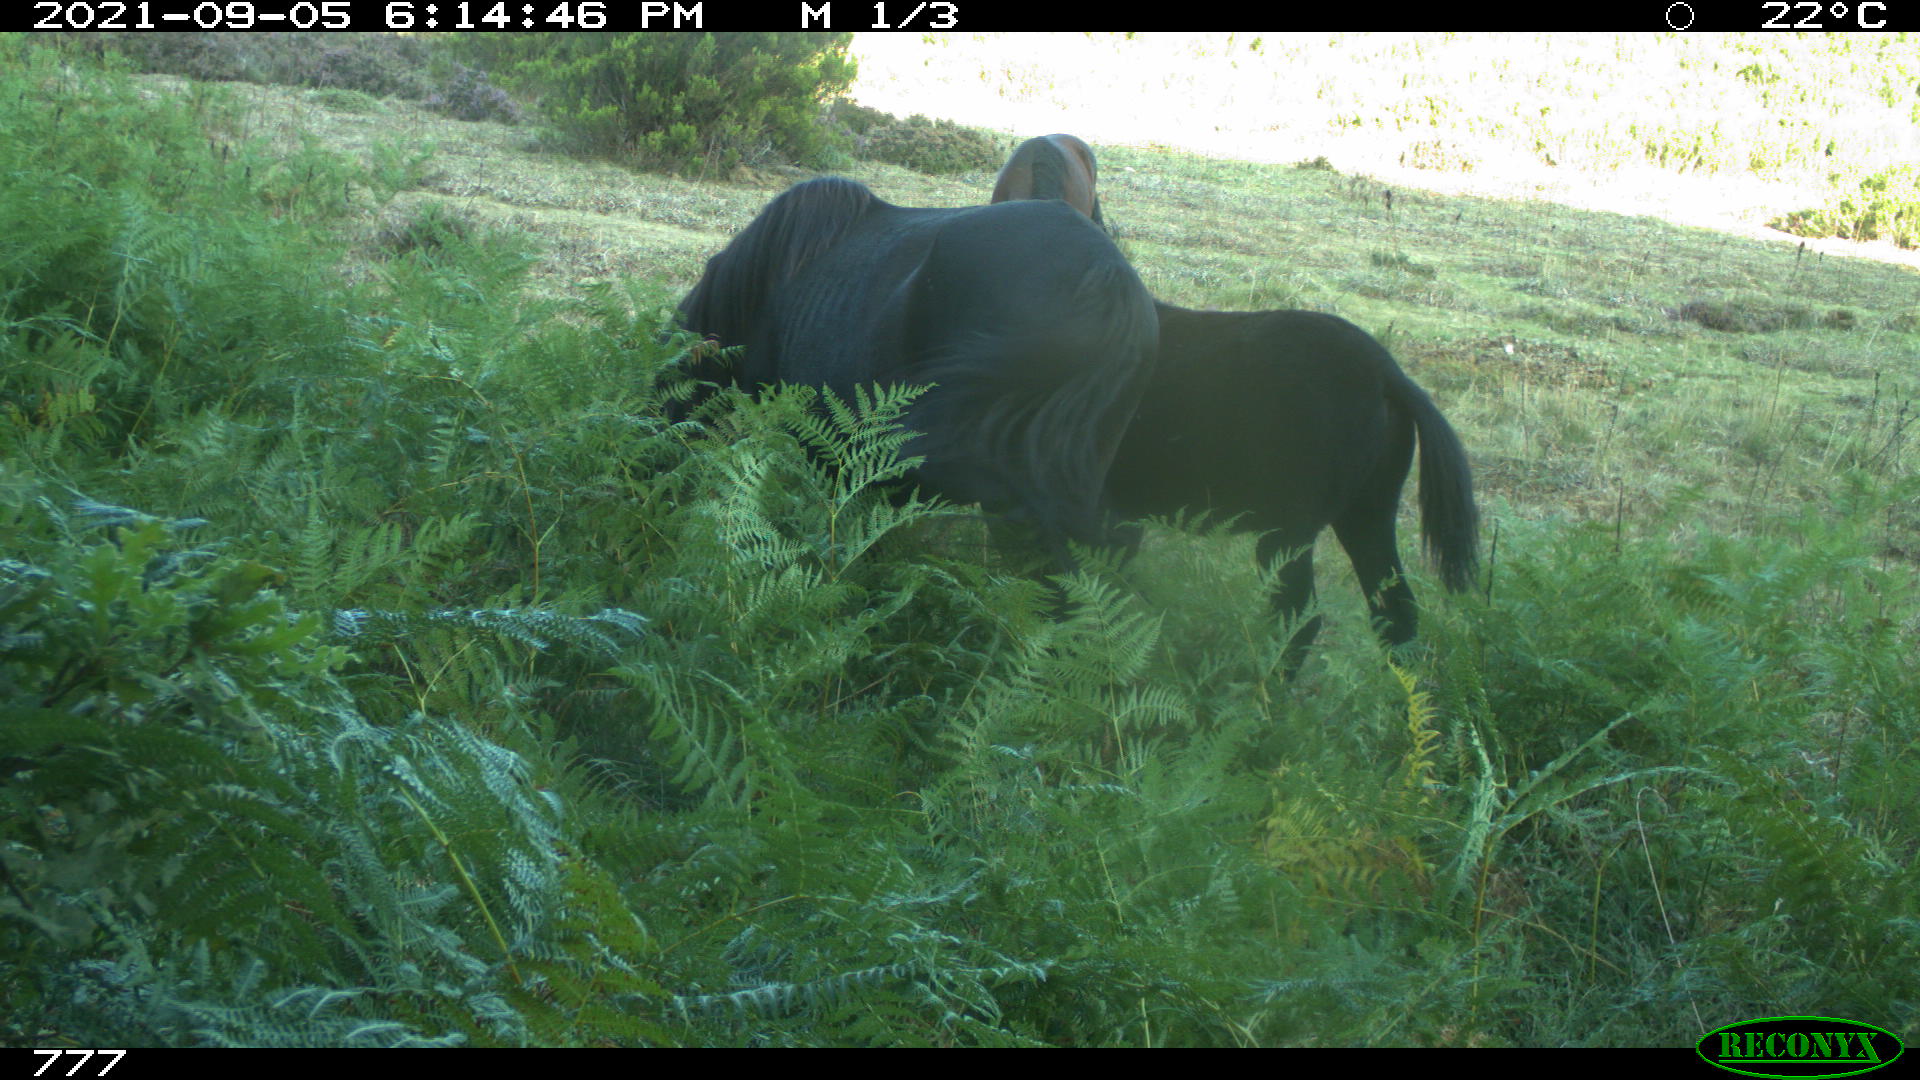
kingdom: Animalia
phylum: Chordata
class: Mammalia
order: Perissodactyla
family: Equidae
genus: Equus
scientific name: Equus caballus
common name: Horse
